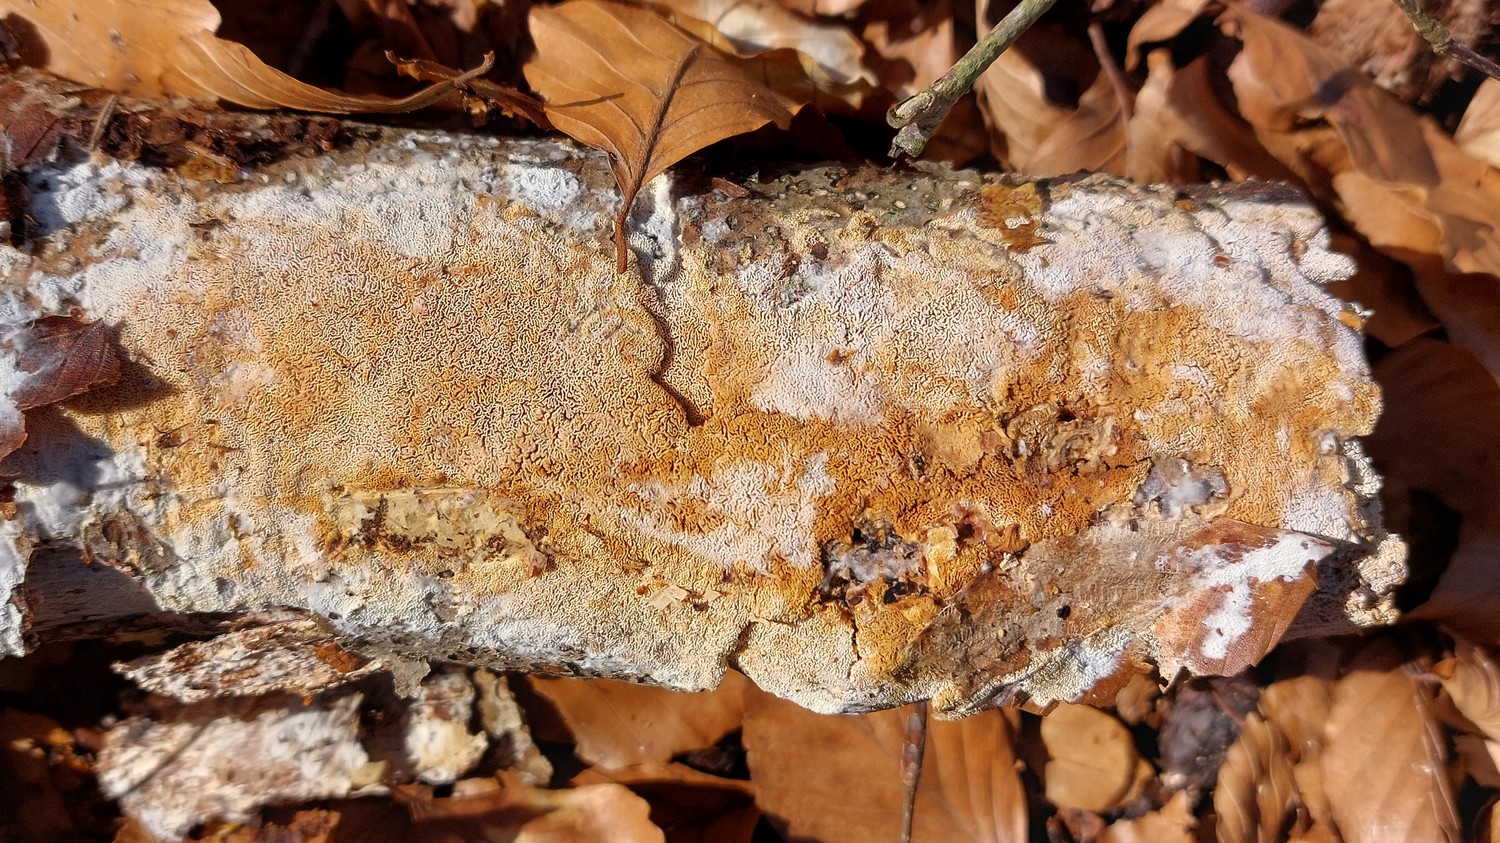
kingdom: Fungi
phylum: Basidiomycota
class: Agaricomycetes
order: Hymenochaetales
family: Schizoporaceae
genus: Xylodon
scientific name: Xylodon subtropicus
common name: labyrint-tandsvamp
